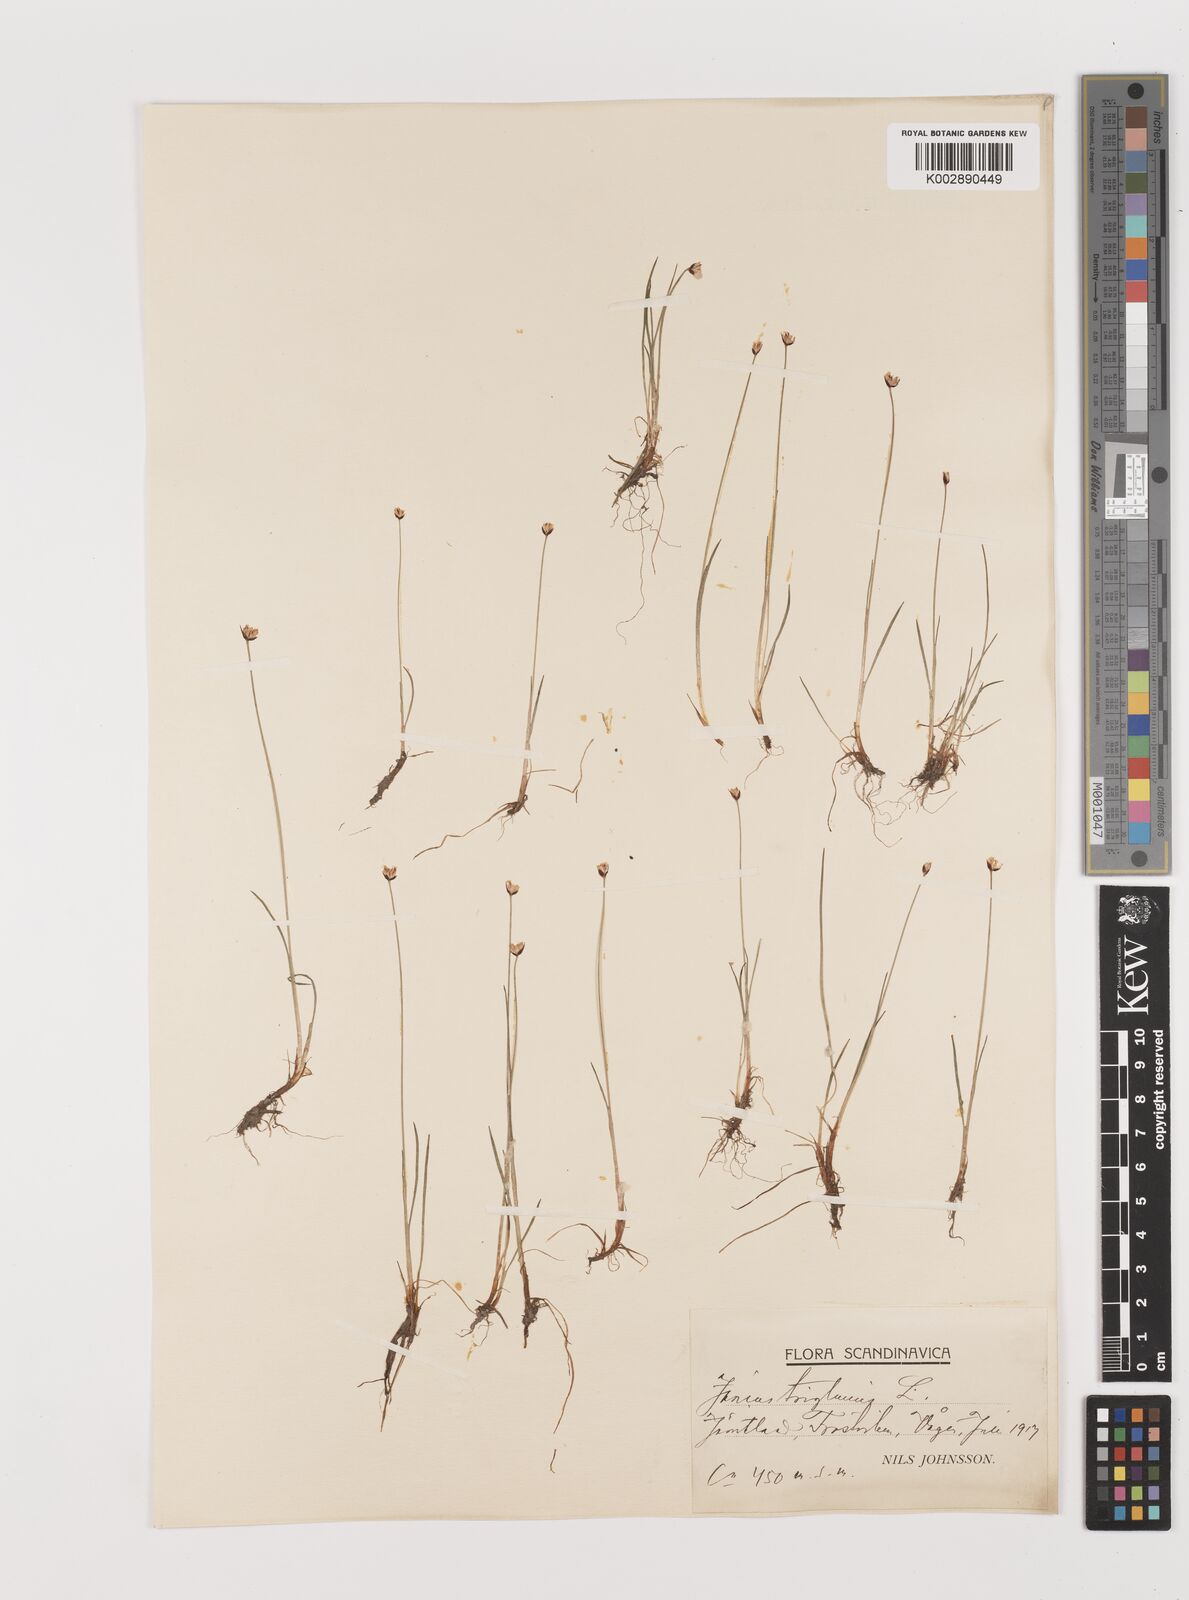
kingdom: Plantae
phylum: Tracheophyta
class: Liliopsida
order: Poales
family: Juncaceae
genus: Juncus
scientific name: Juncus triglumis
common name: Three-flowered rush
